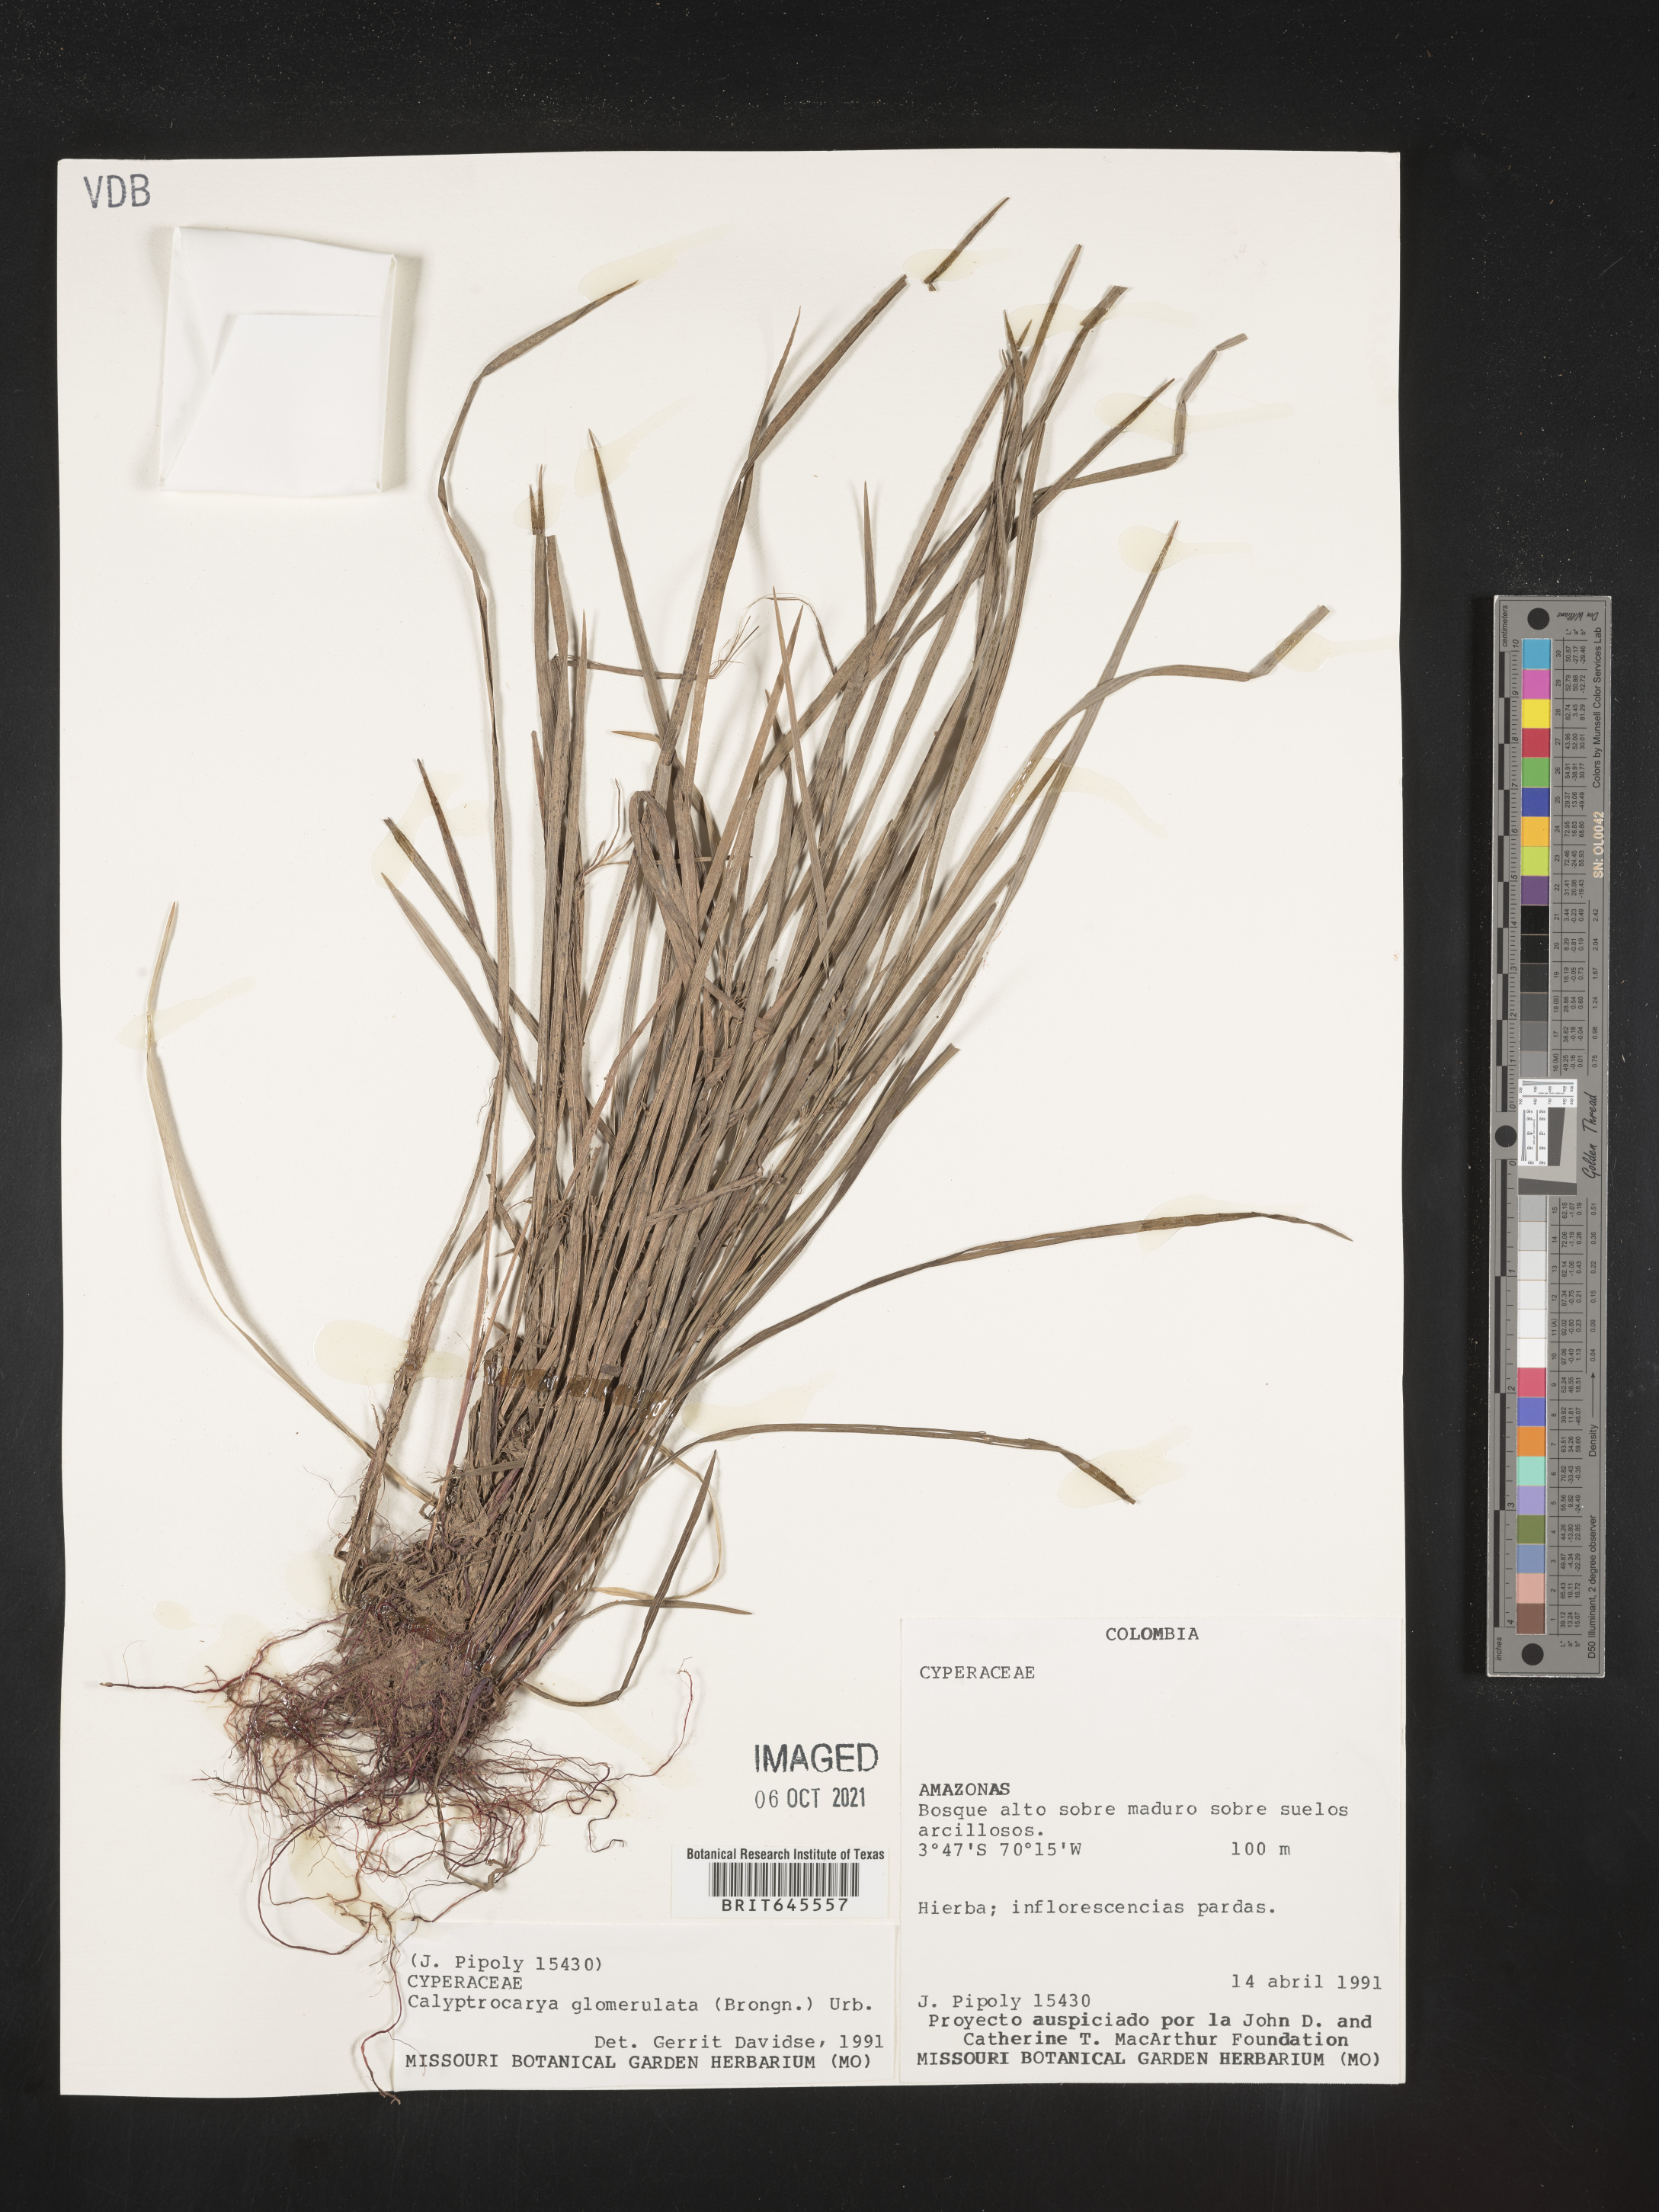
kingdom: Plantae
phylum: Tracheophyta
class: Liliopsida
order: Poales
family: Cyperaceae
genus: Calyptrocarya
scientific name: Calyptrocarya glomerulata
